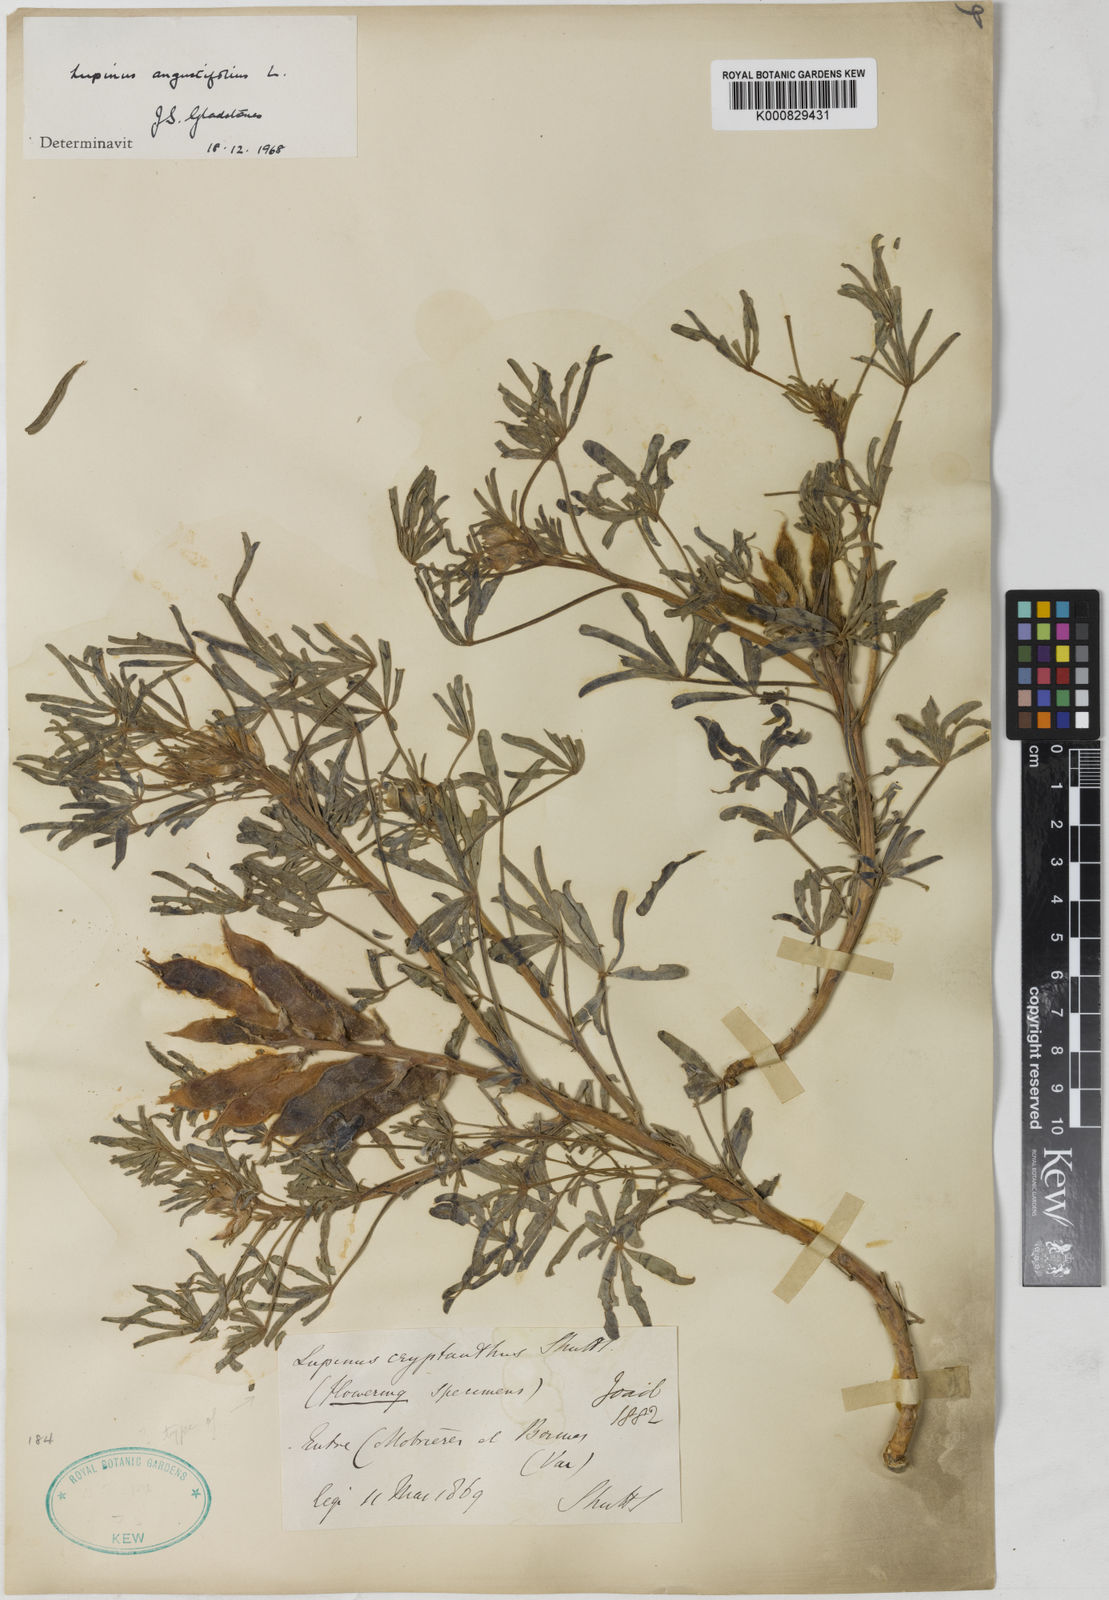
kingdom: Plantae
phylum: Tracheophyta
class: Magnoliopsida
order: Fabales
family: Fabaceae
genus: Lupinus
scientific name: Lupinus
